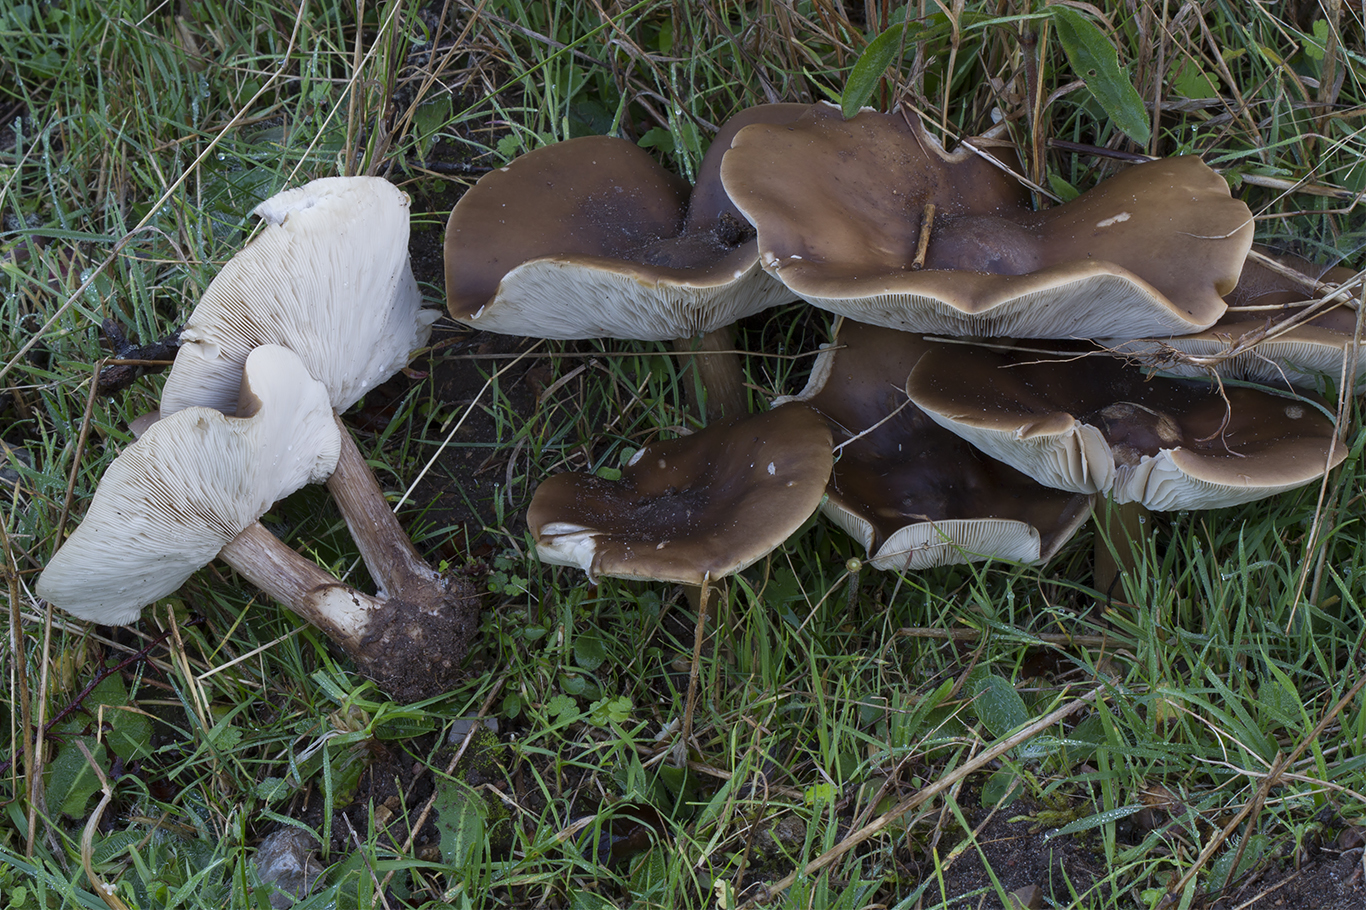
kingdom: Fungi
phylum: Basidiomycota
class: Agaricomycetes
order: Agaricales
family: Tricholomataceae
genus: Melanoleuca
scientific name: Melanoleuca grammopodia
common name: stribestokket munkehat
